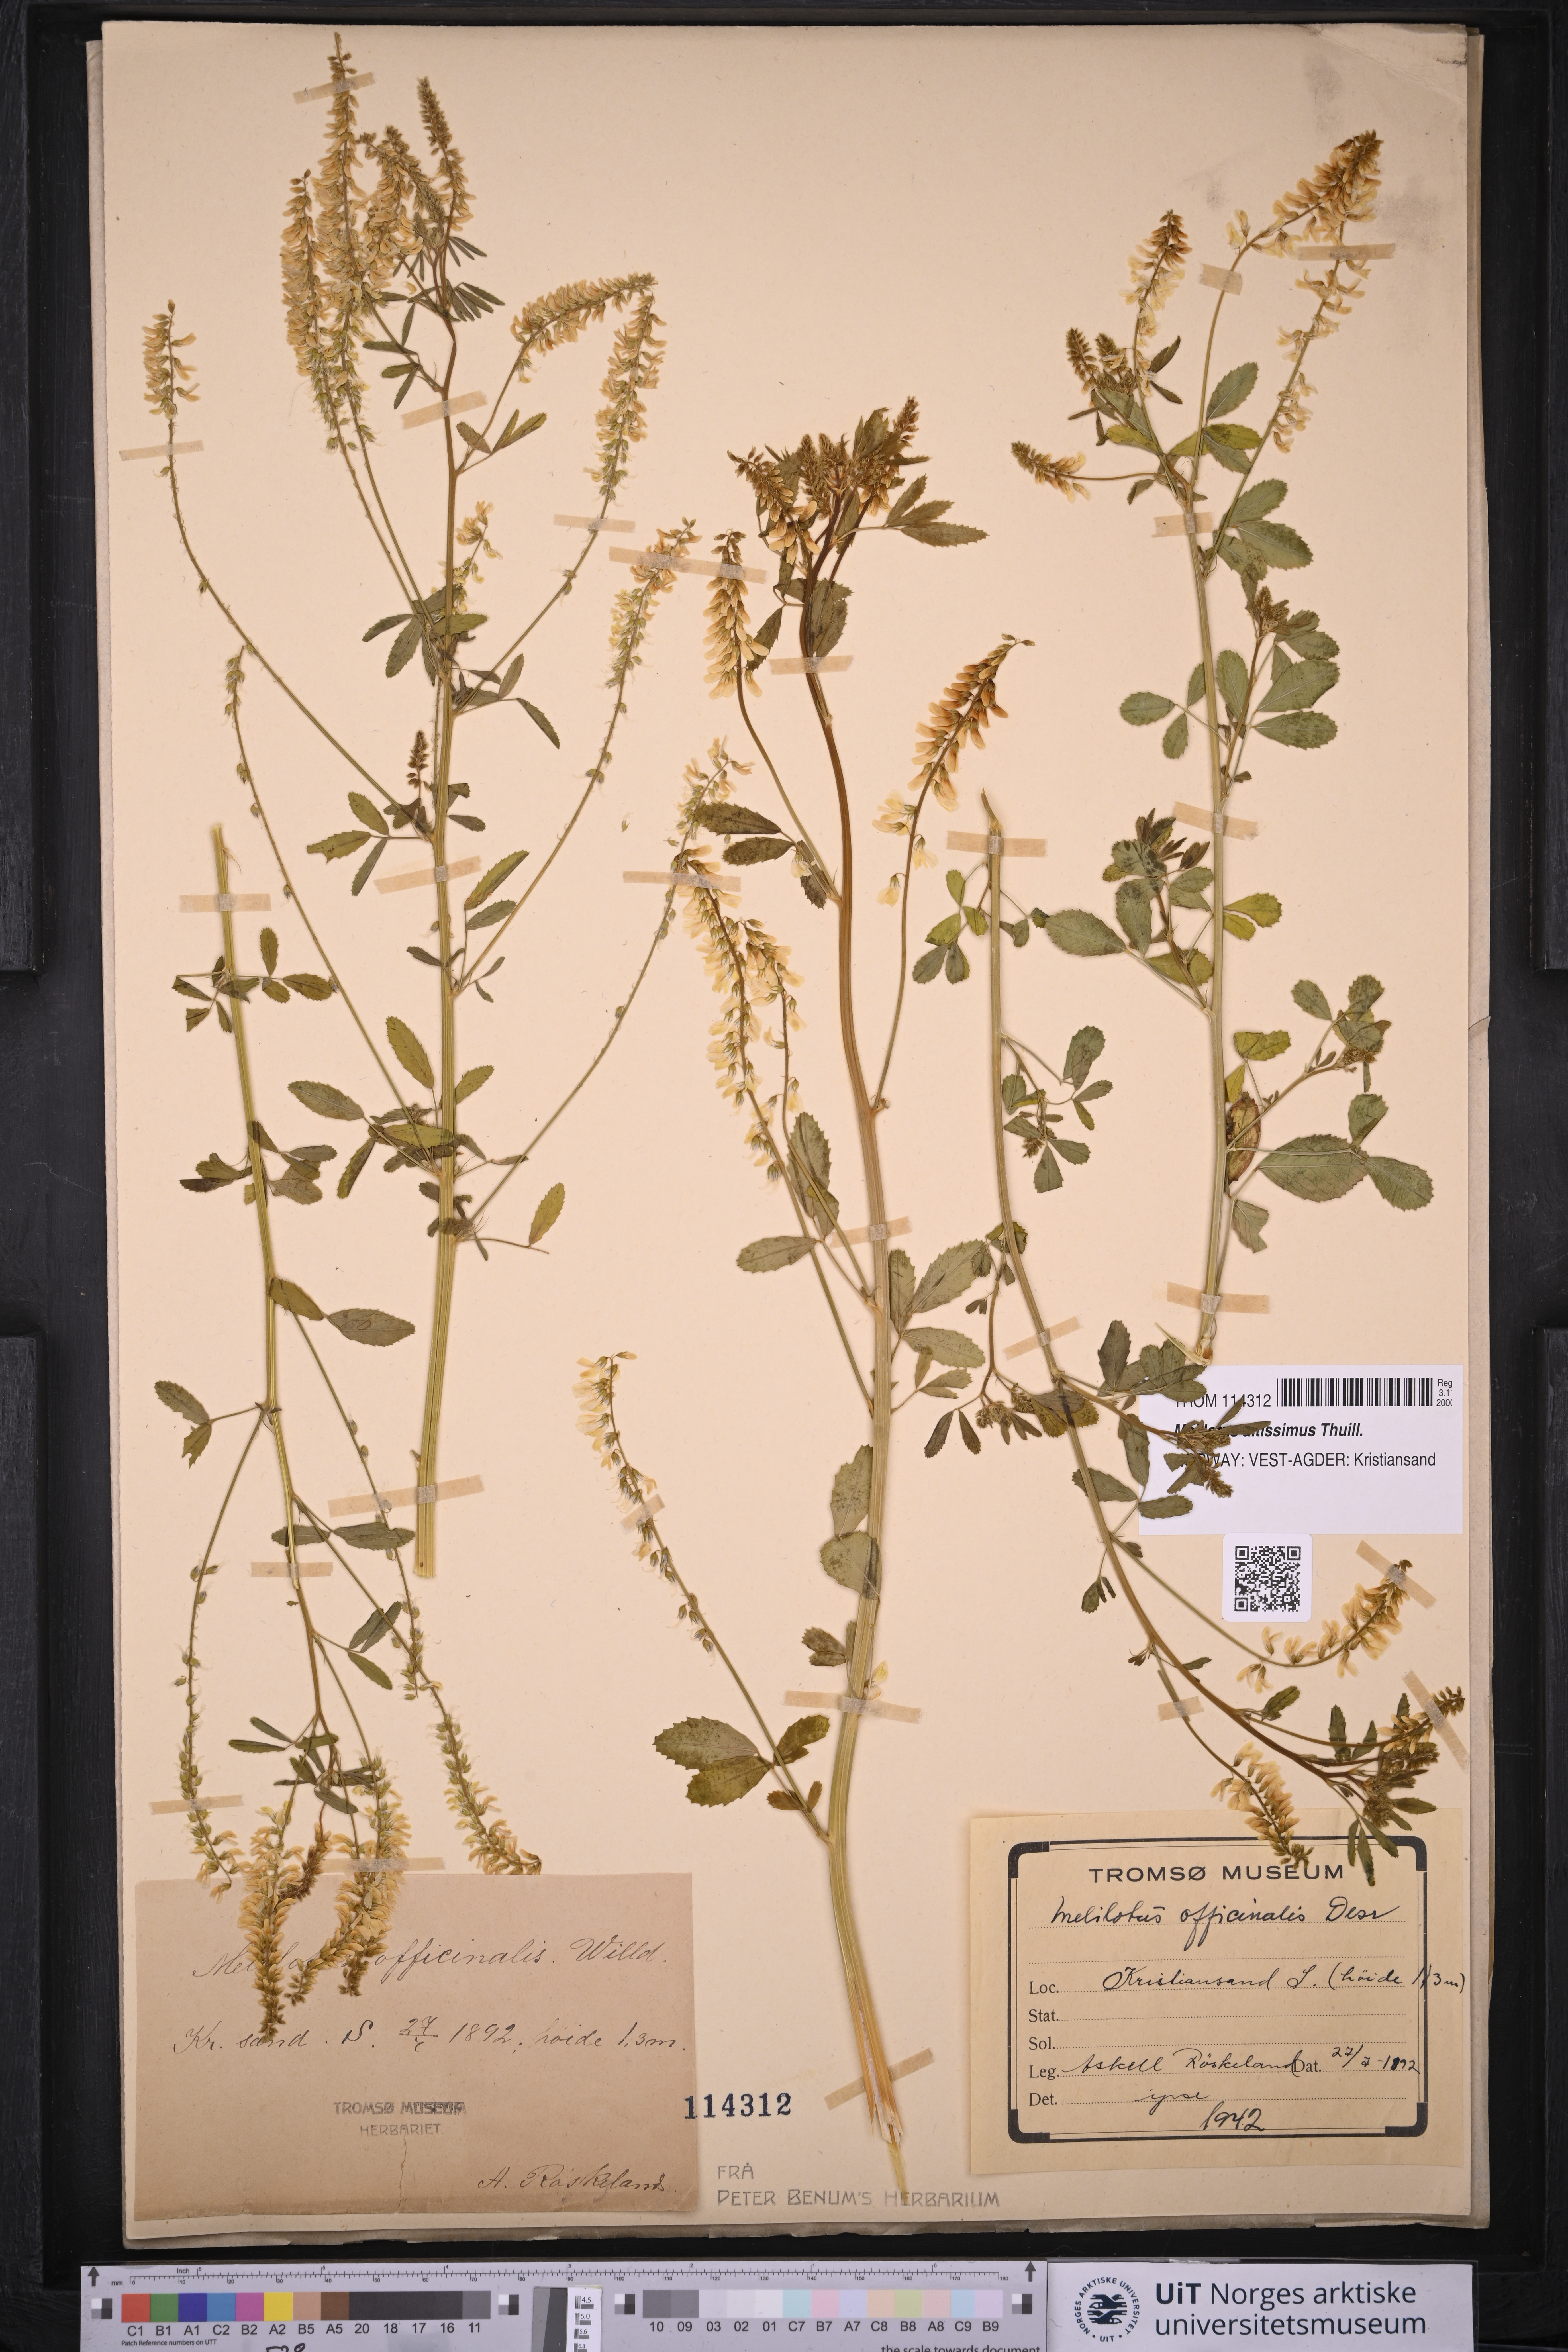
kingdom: Plantae
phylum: Tracheophyta
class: Magnoliopsida
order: Fabales
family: Fabaceae
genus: Melilotus
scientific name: Melilotus altissimus
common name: Tall melilot
